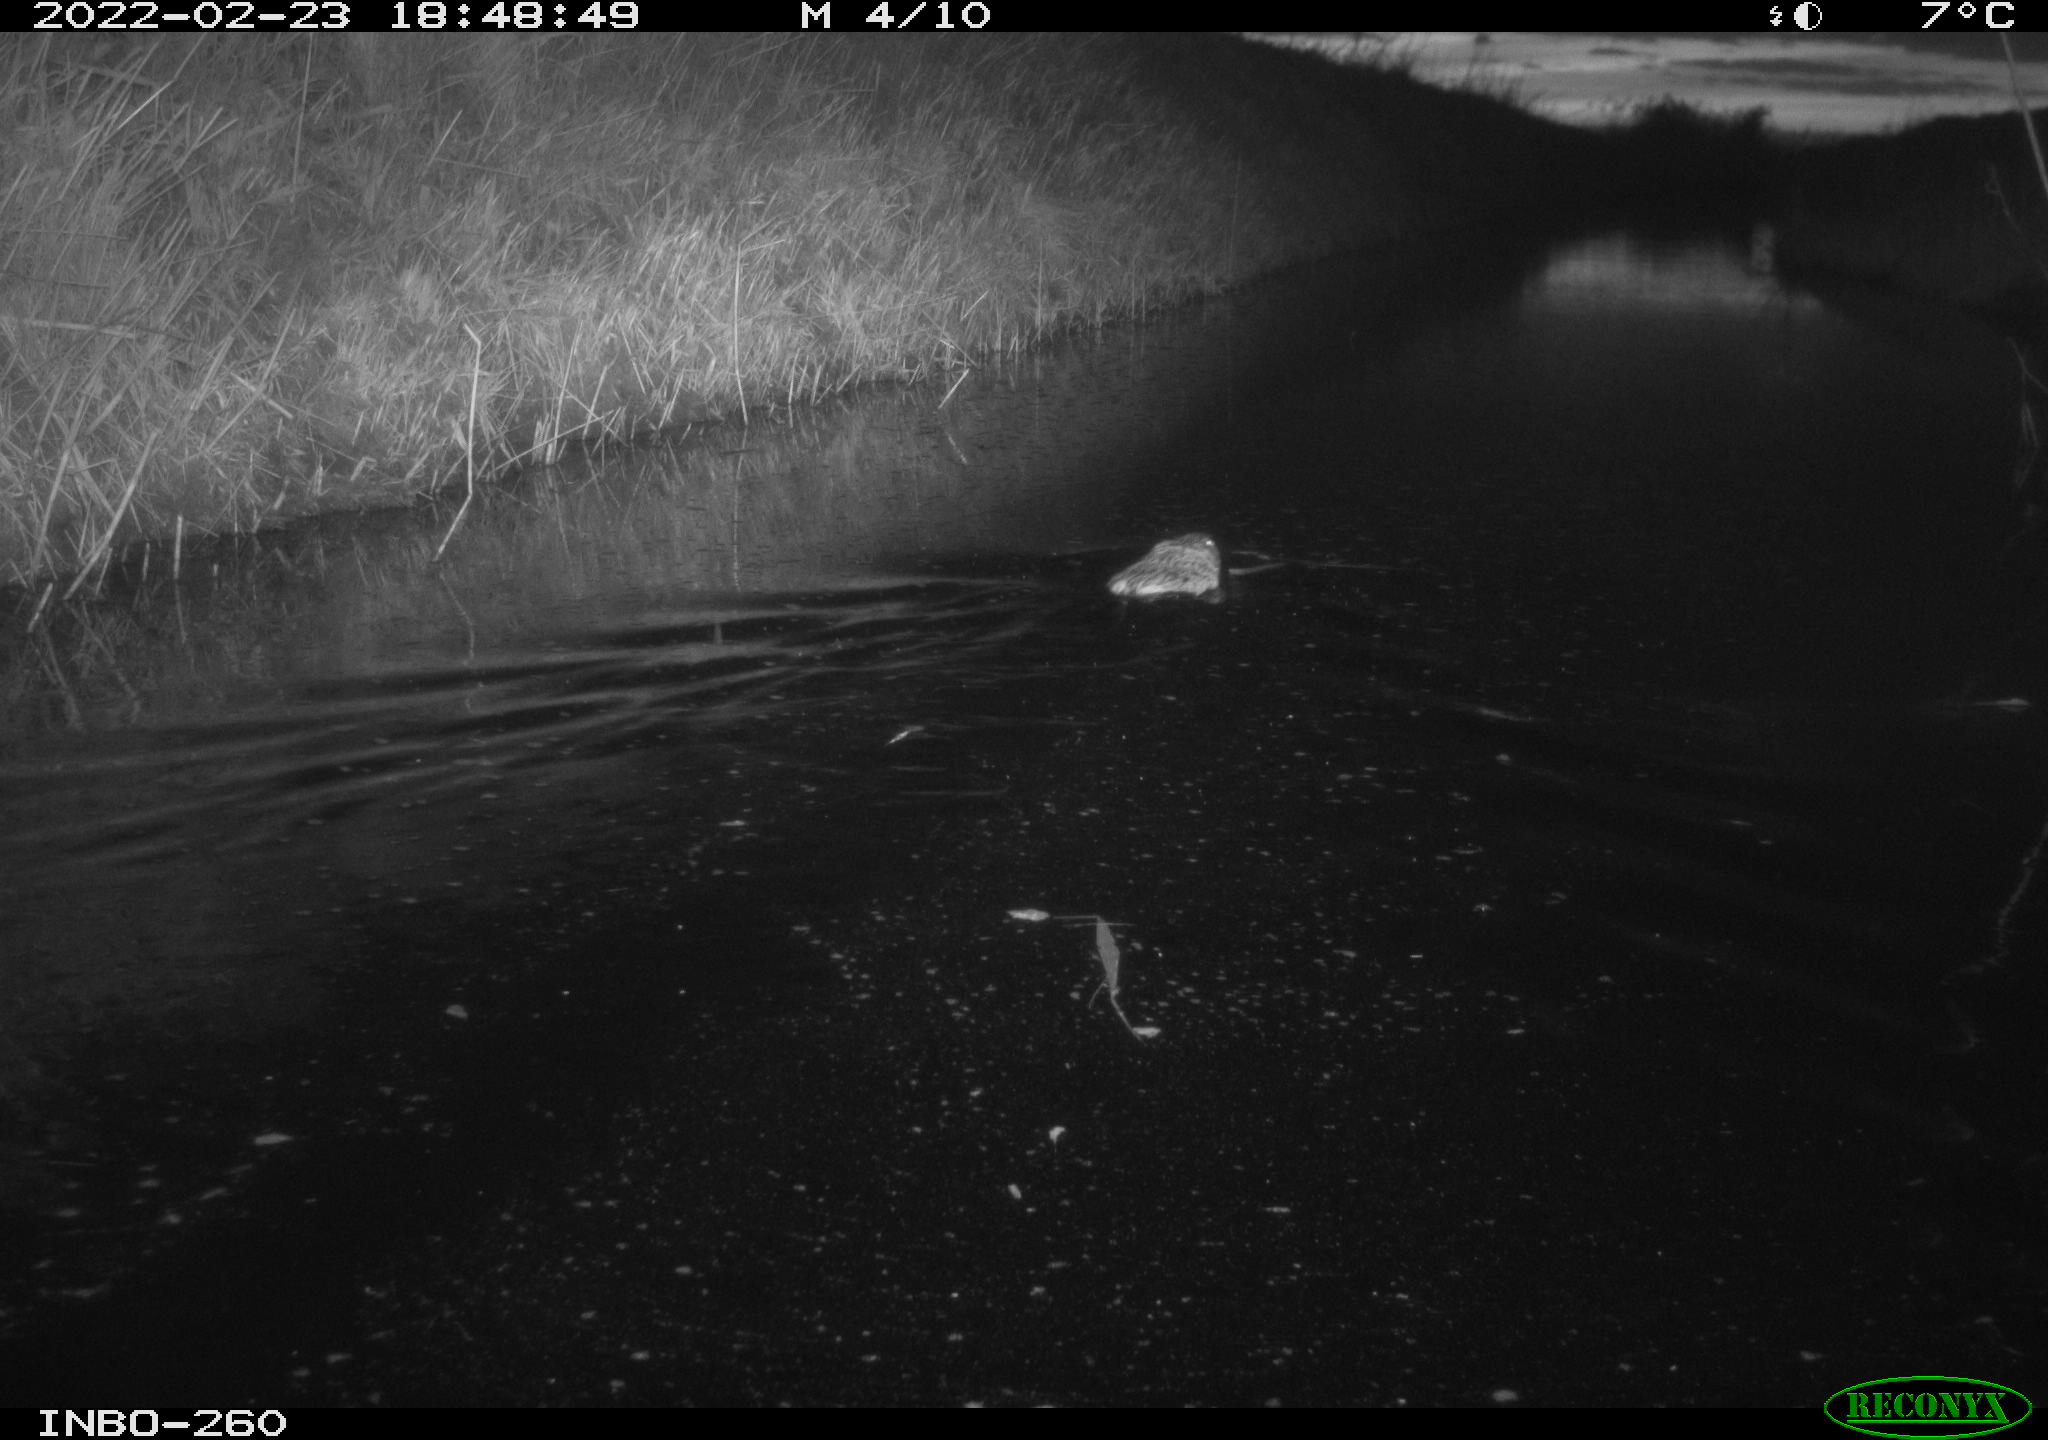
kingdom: Animalia
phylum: Chordata
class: Mammalia
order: Rodentia
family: Cricetidae
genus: Ondatra
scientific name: Ondatra zibethicus
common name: Muskrat
